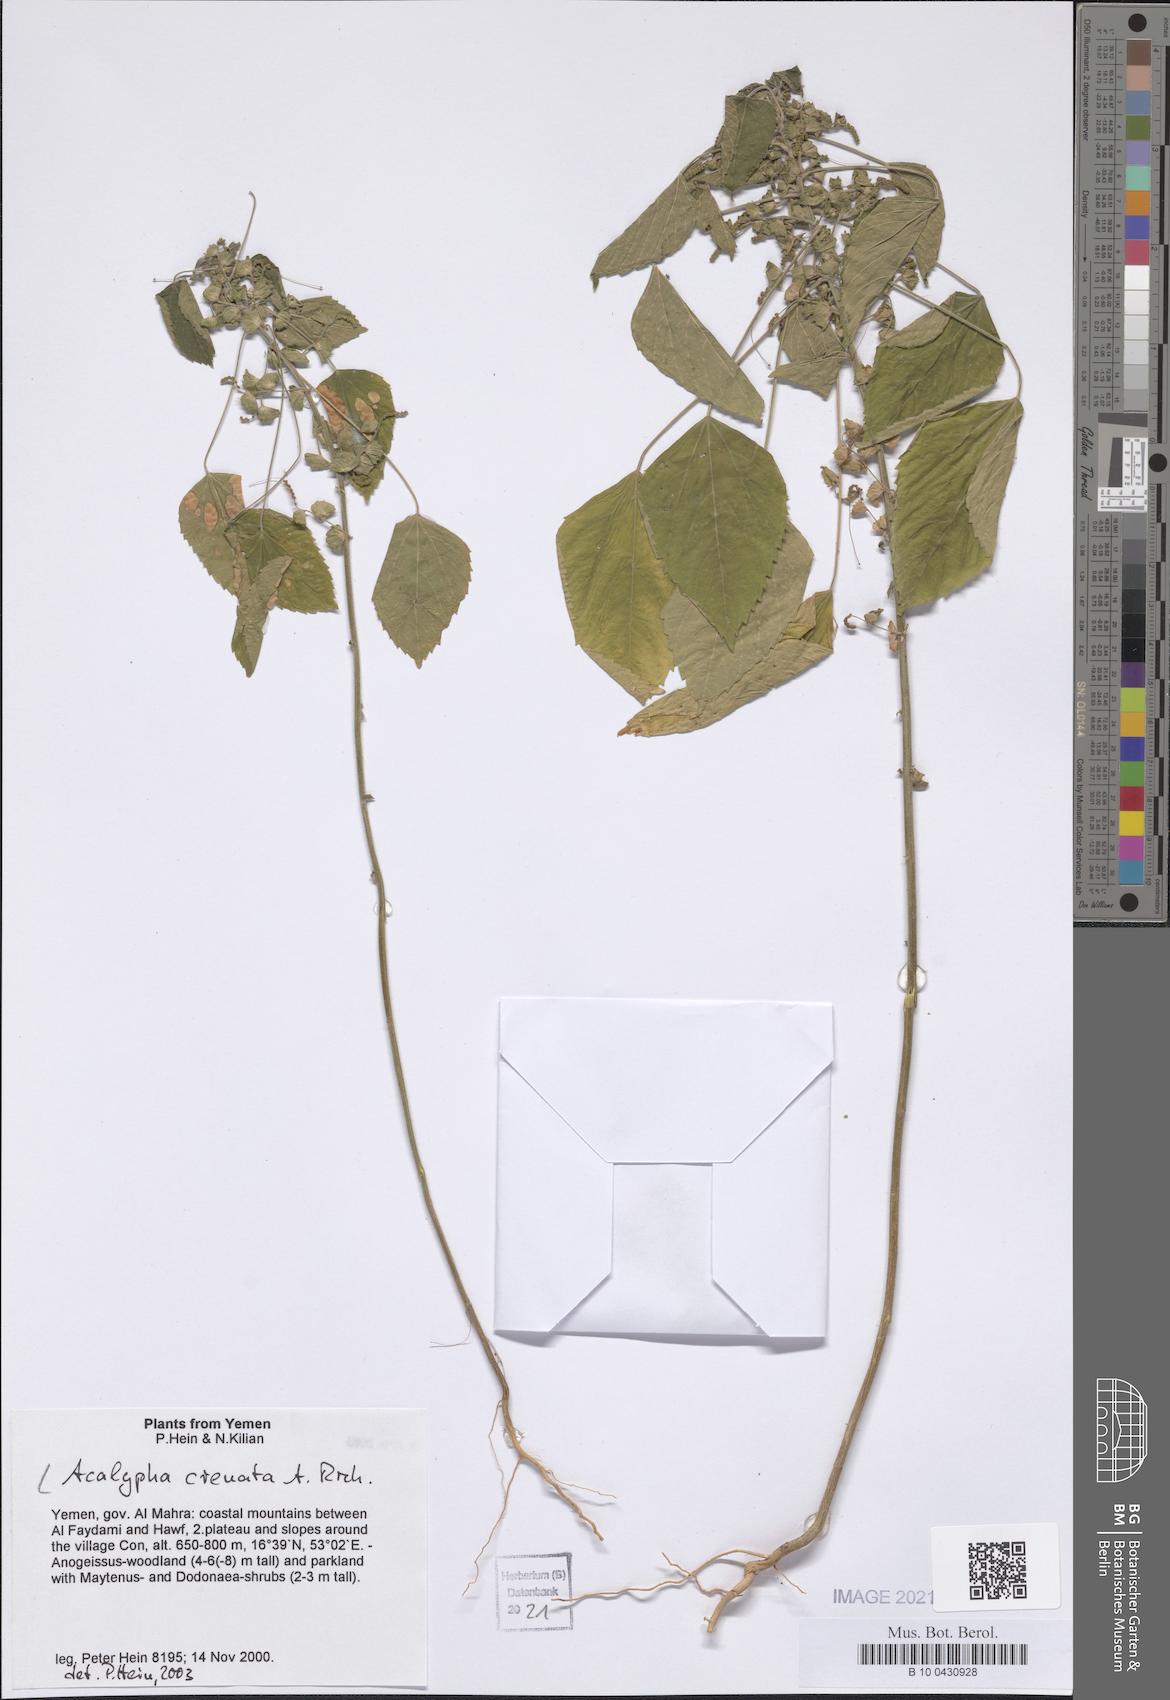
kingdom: Plantae
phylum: Tracheophyta
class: Magnoliopsida
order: Malpighiales
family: Euphorbiaceae
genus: Acalypha
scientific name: Acalypha crenata
